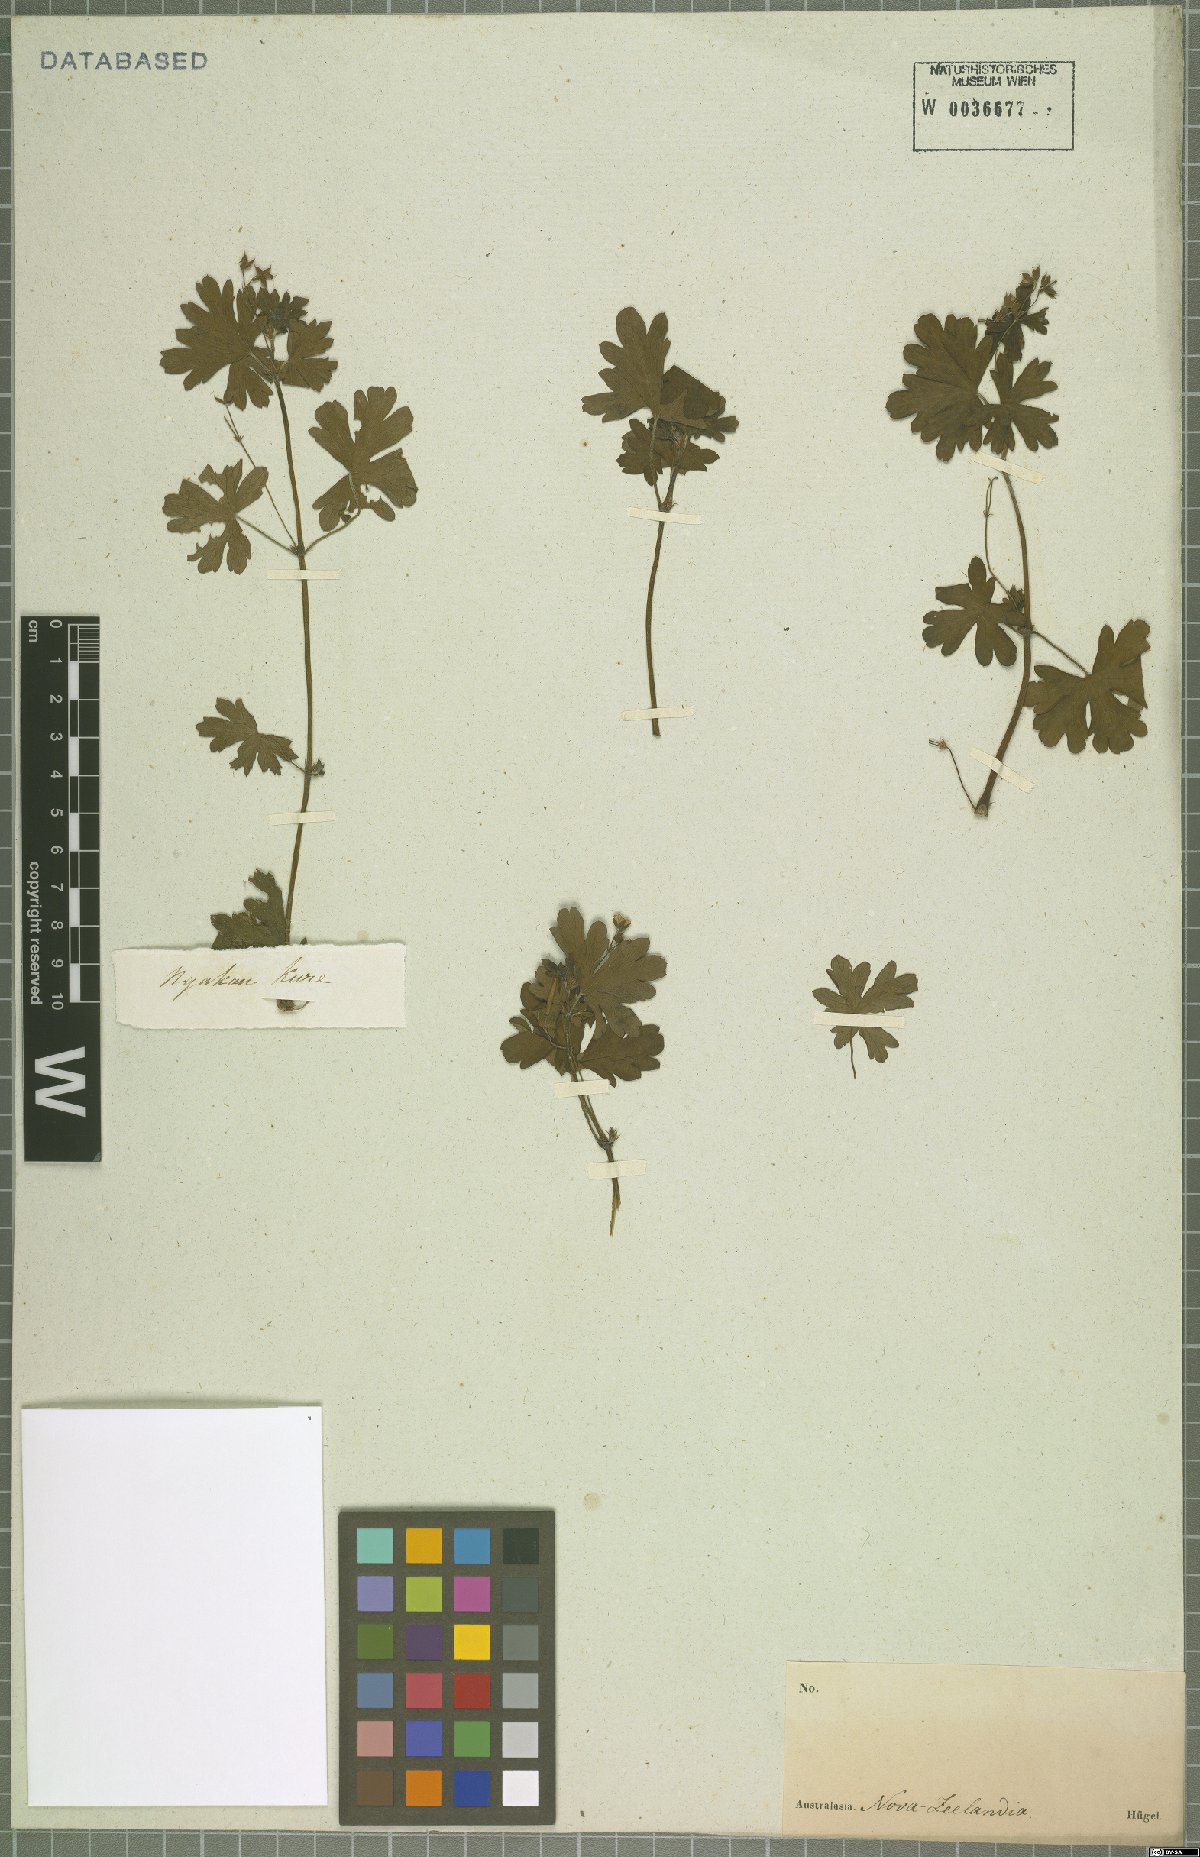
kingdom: Plantae
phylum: Tracheophyta
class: Magnoliopsida
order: Geraniales
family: Geraniaceae
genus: Geranium
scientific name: Geranium homeanum
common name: Australasian geranium
